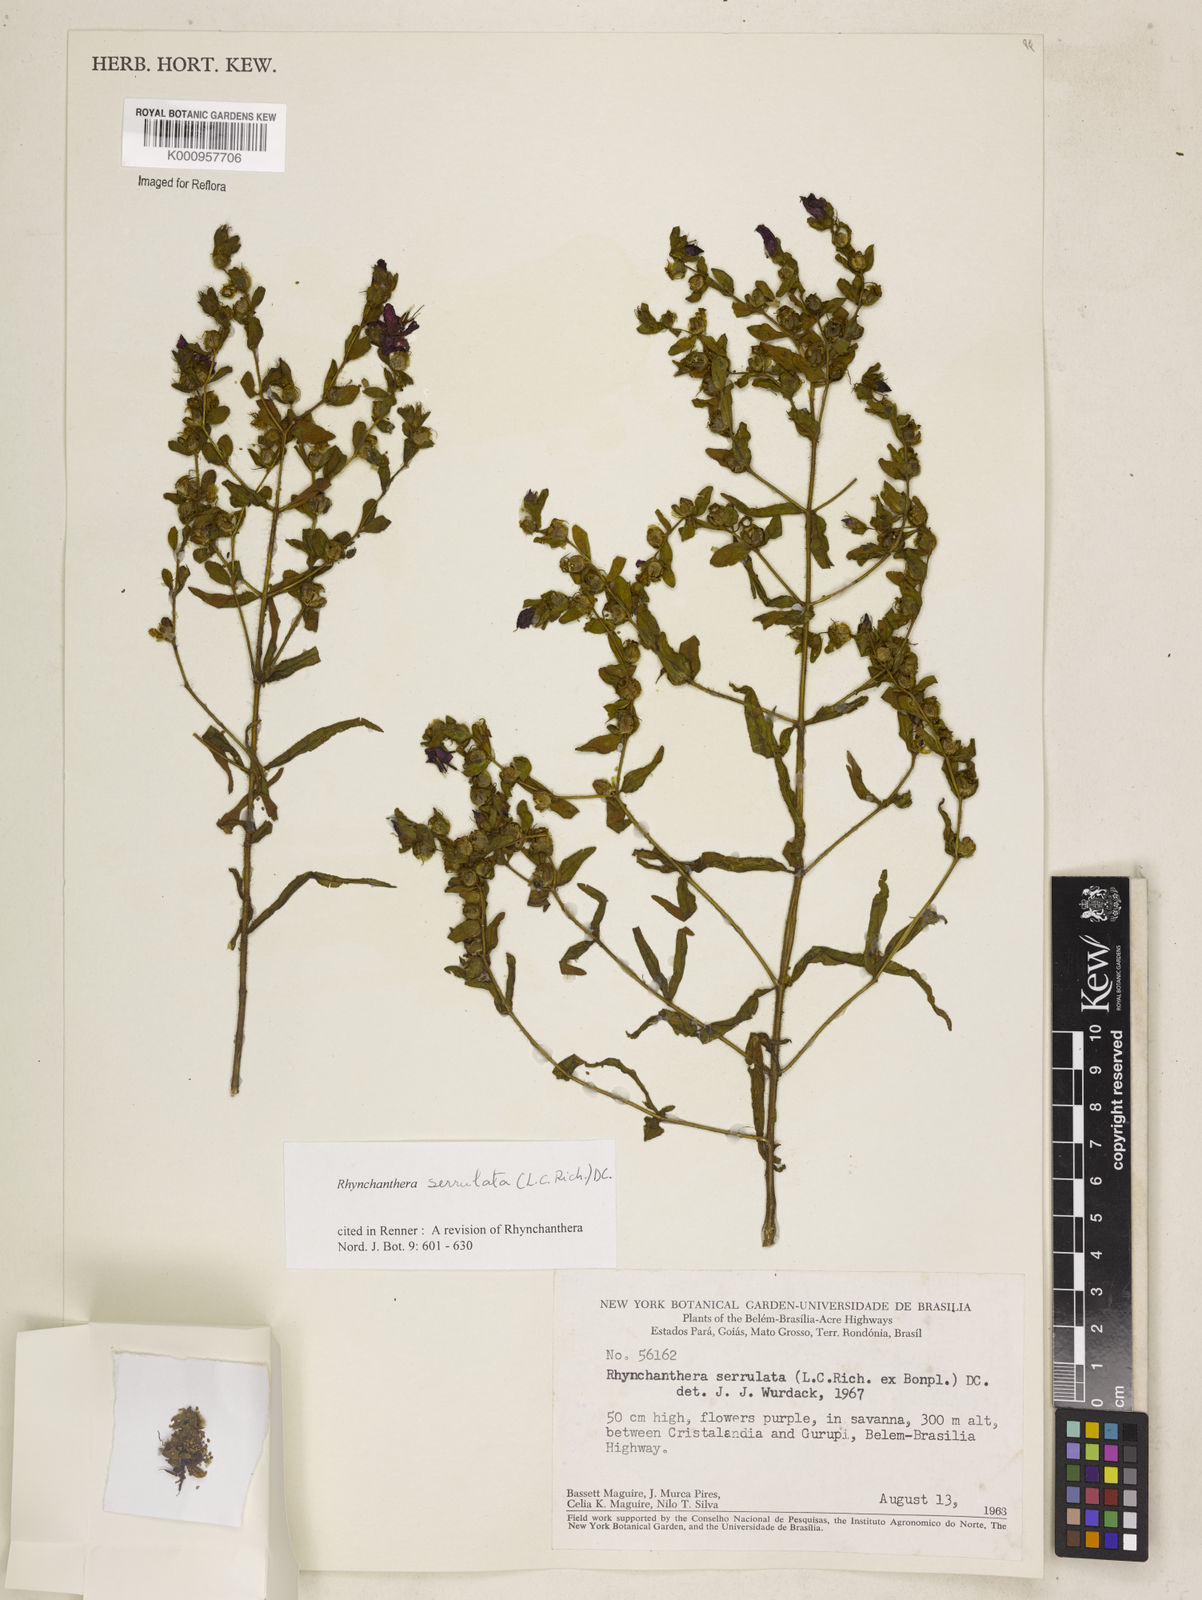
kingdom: Plantae
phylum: Tracheophyta
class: Magnoliopsida
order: Myrtales
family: Melastomataceae
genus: Rhynchanthera
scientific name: Rhynchanthera serrulata
